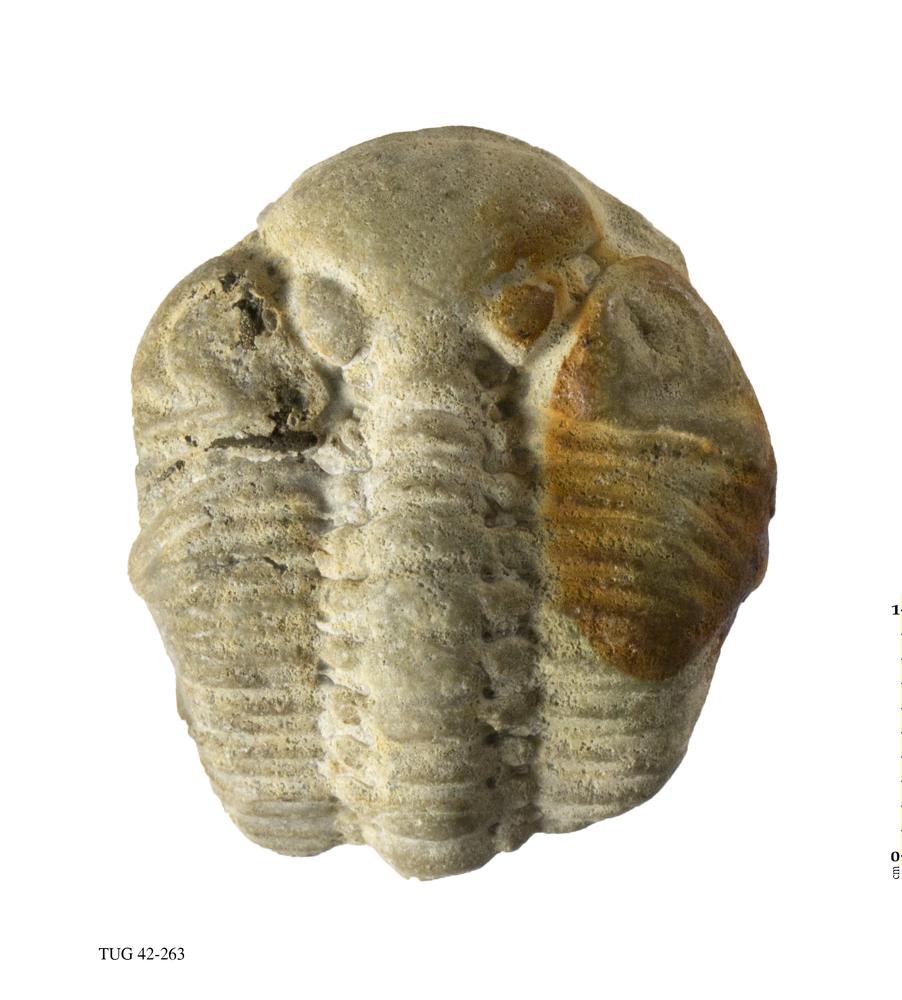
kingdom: Animalia
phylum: Arthropoda
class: Trilobita
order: Phacopida
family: Phacopidae
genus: Phacops
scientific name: Phacops
